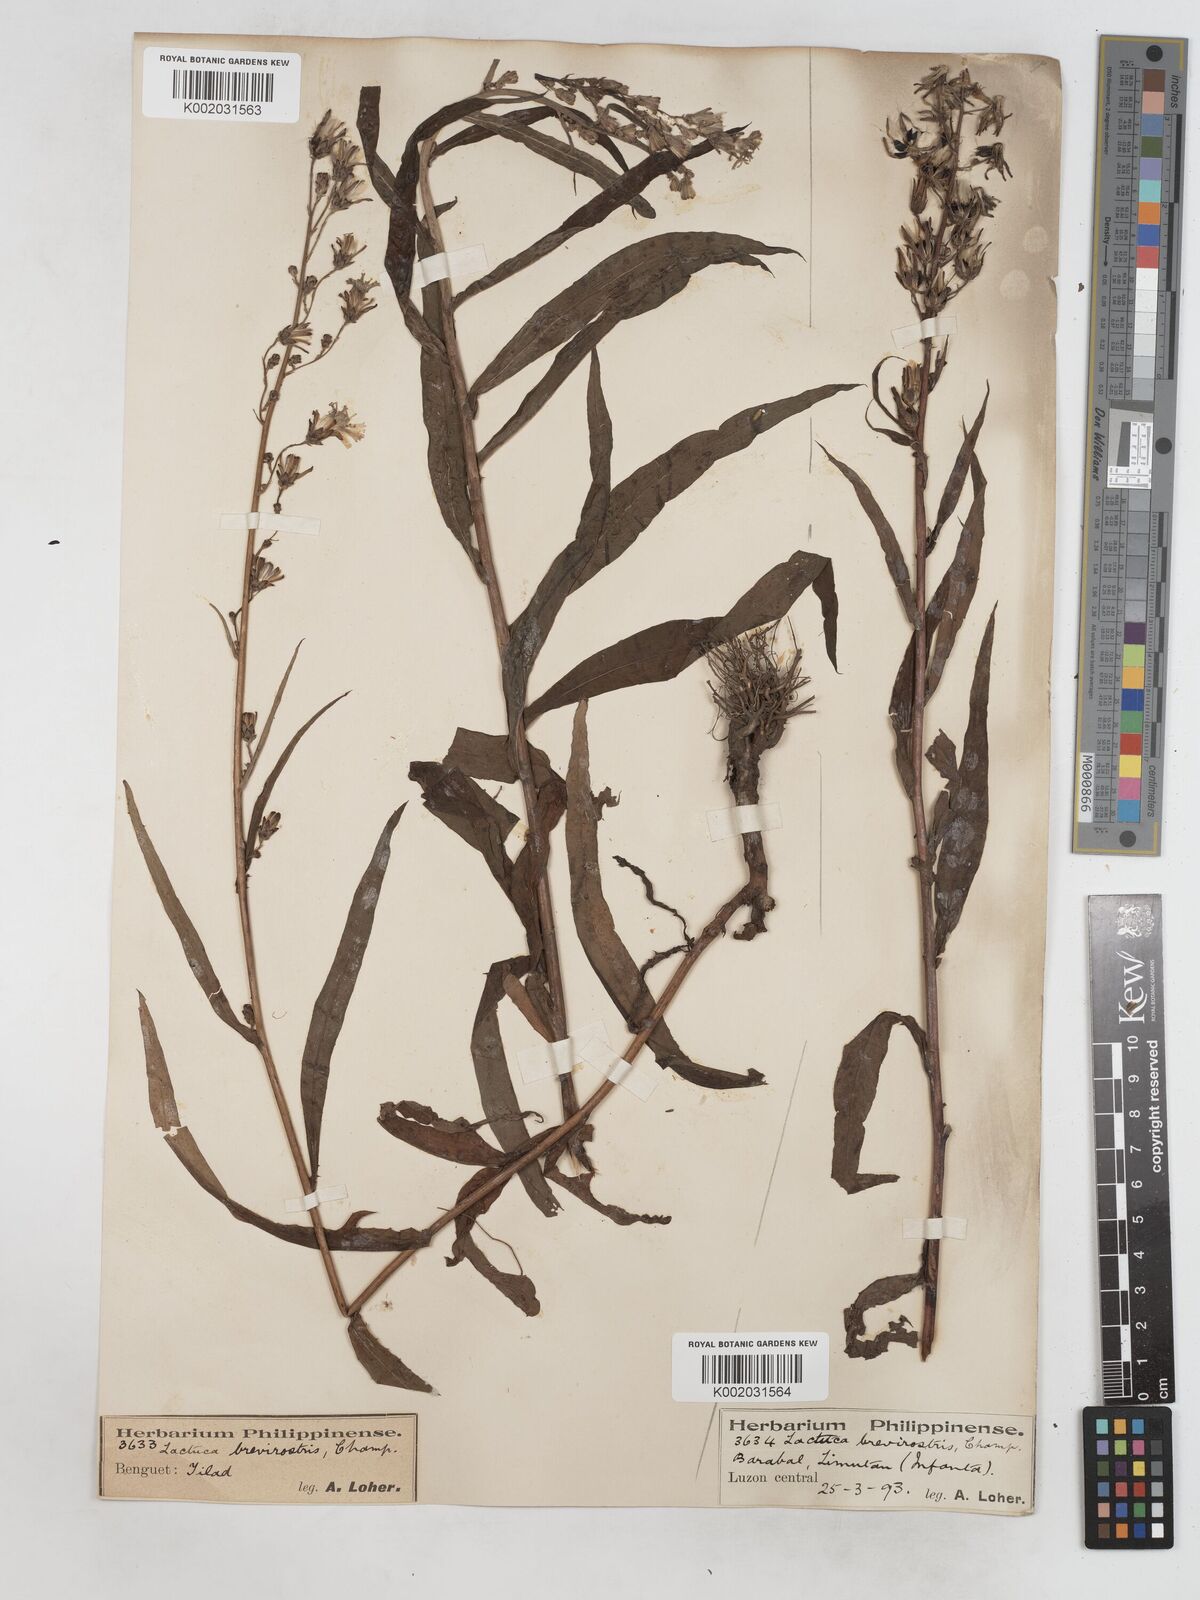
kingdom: Plantae
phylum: Tracheophyta
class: Magnoliopsida
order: Asterales
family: Asteraceae
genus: Lactuca
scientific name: Lactuca indica
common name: Wild lettuce
